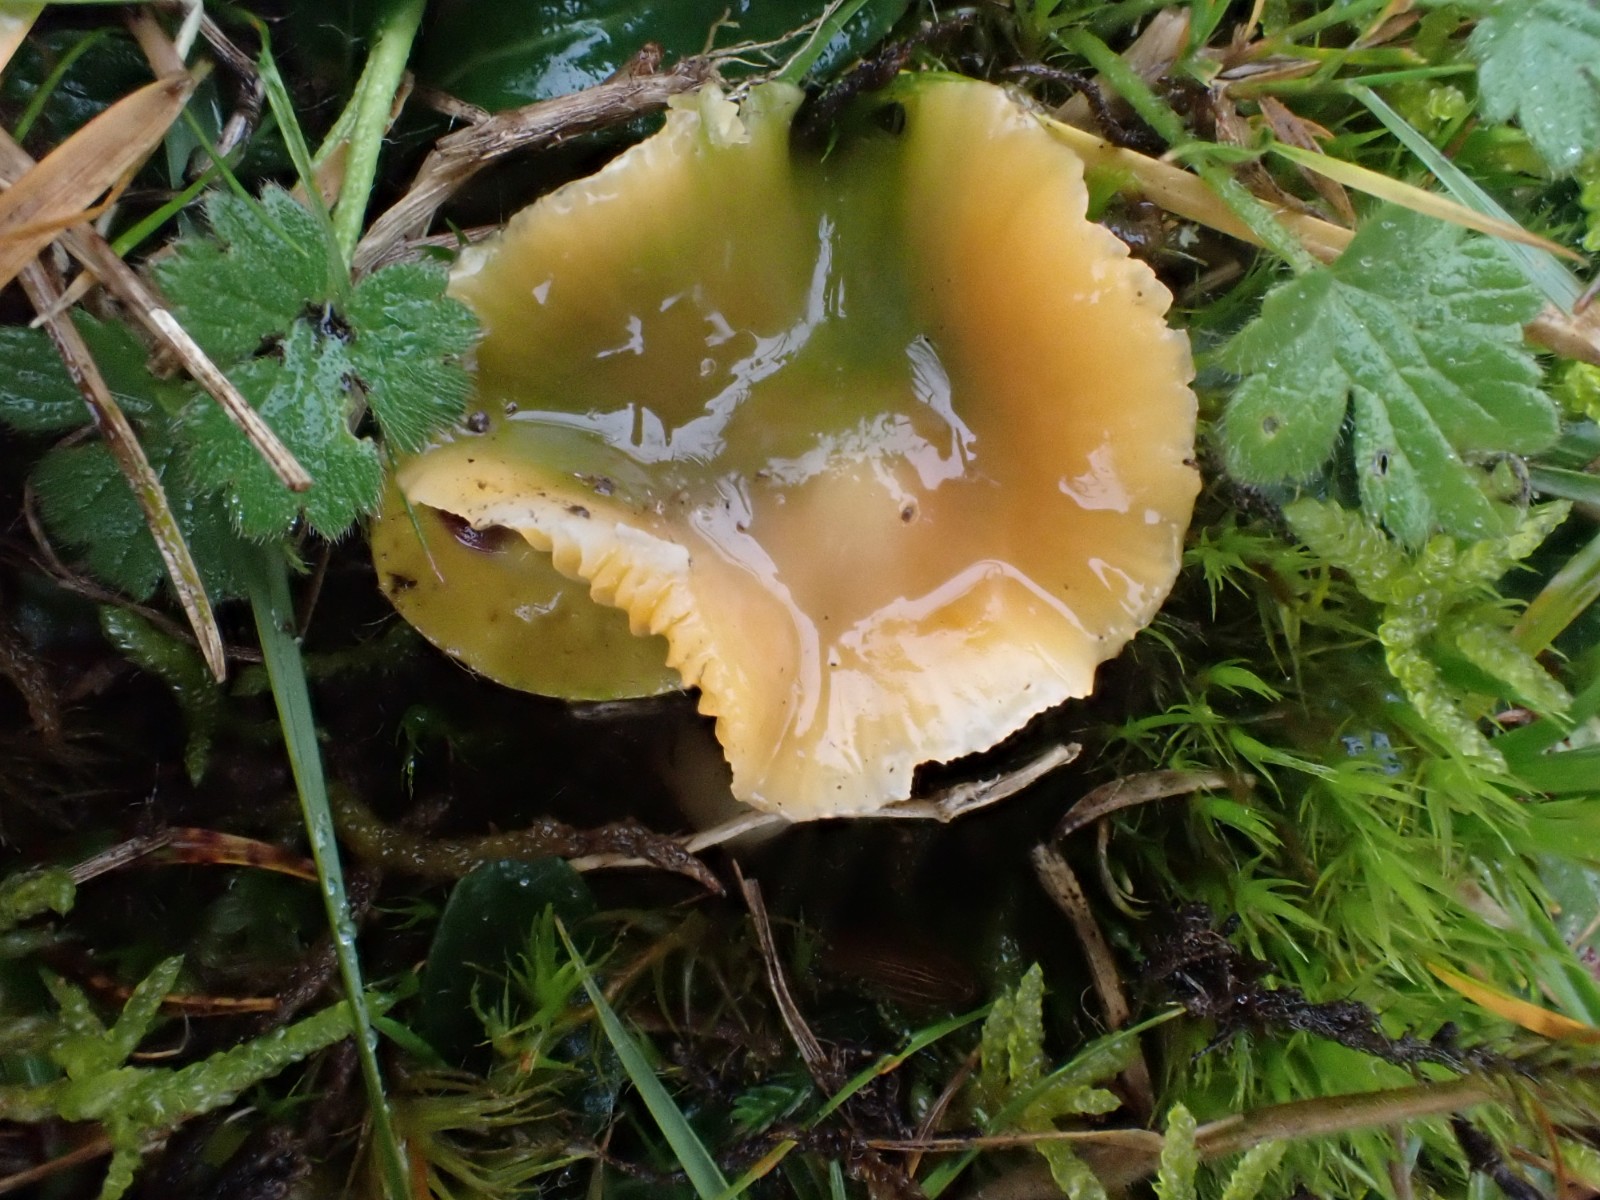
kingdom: Fungi
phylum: Basidiomycota
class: Agaricomycetes
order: Agaricales
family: Hygrophoraceae
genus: Gliophorus
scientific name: Gliophorus psittacinus
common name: papegøje-vokshat
